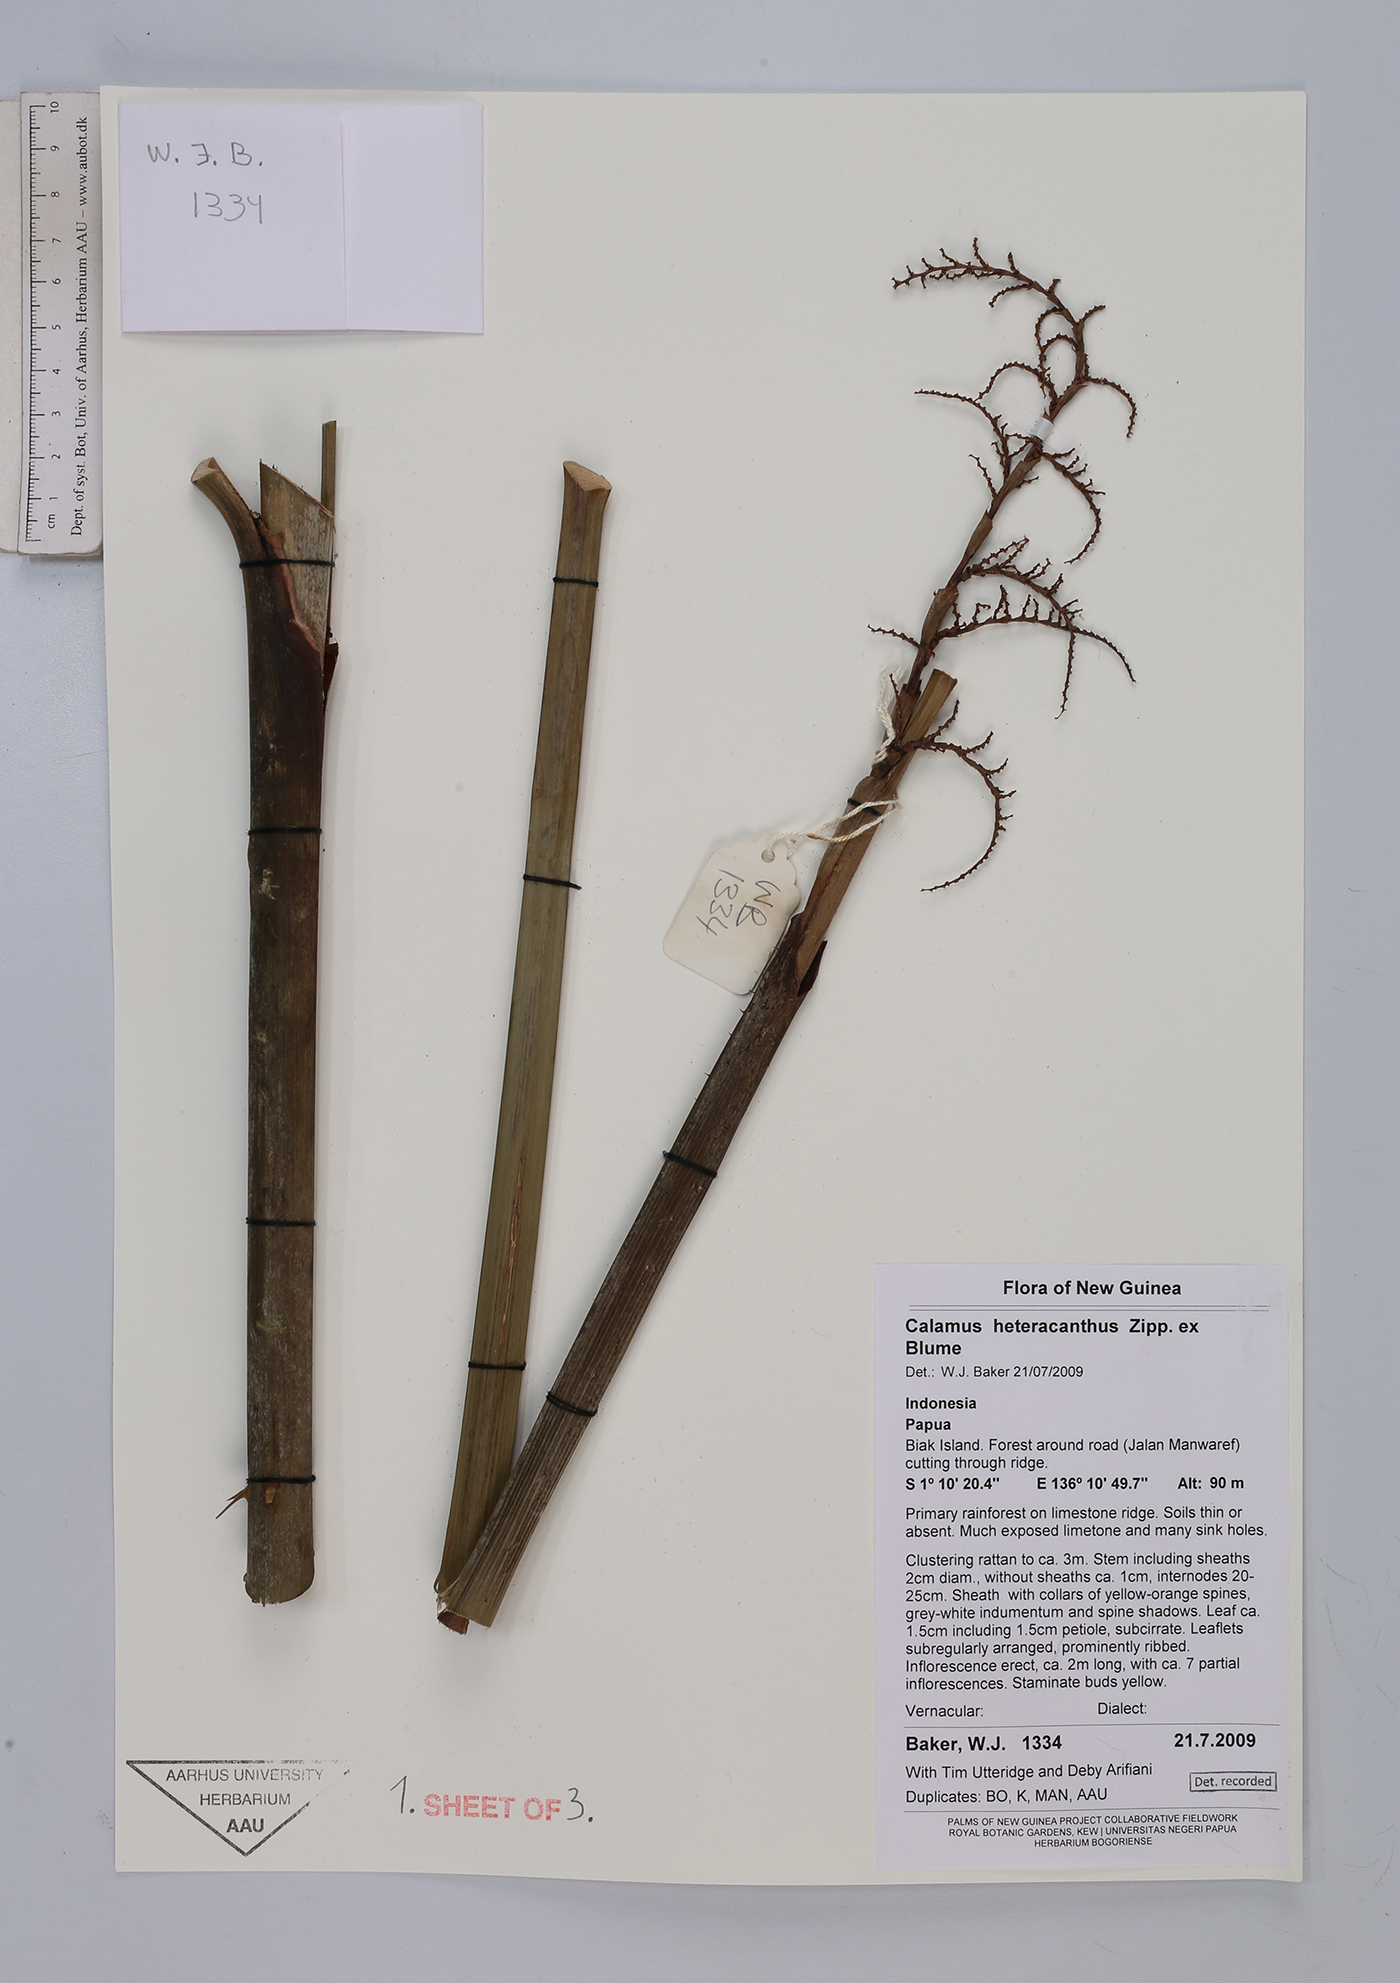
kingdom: Plantae
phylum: Tracheophyta
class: Liliopsida
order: Arecales
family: Arecaceae
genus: Calamus
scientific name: Calamus heteracanthus
